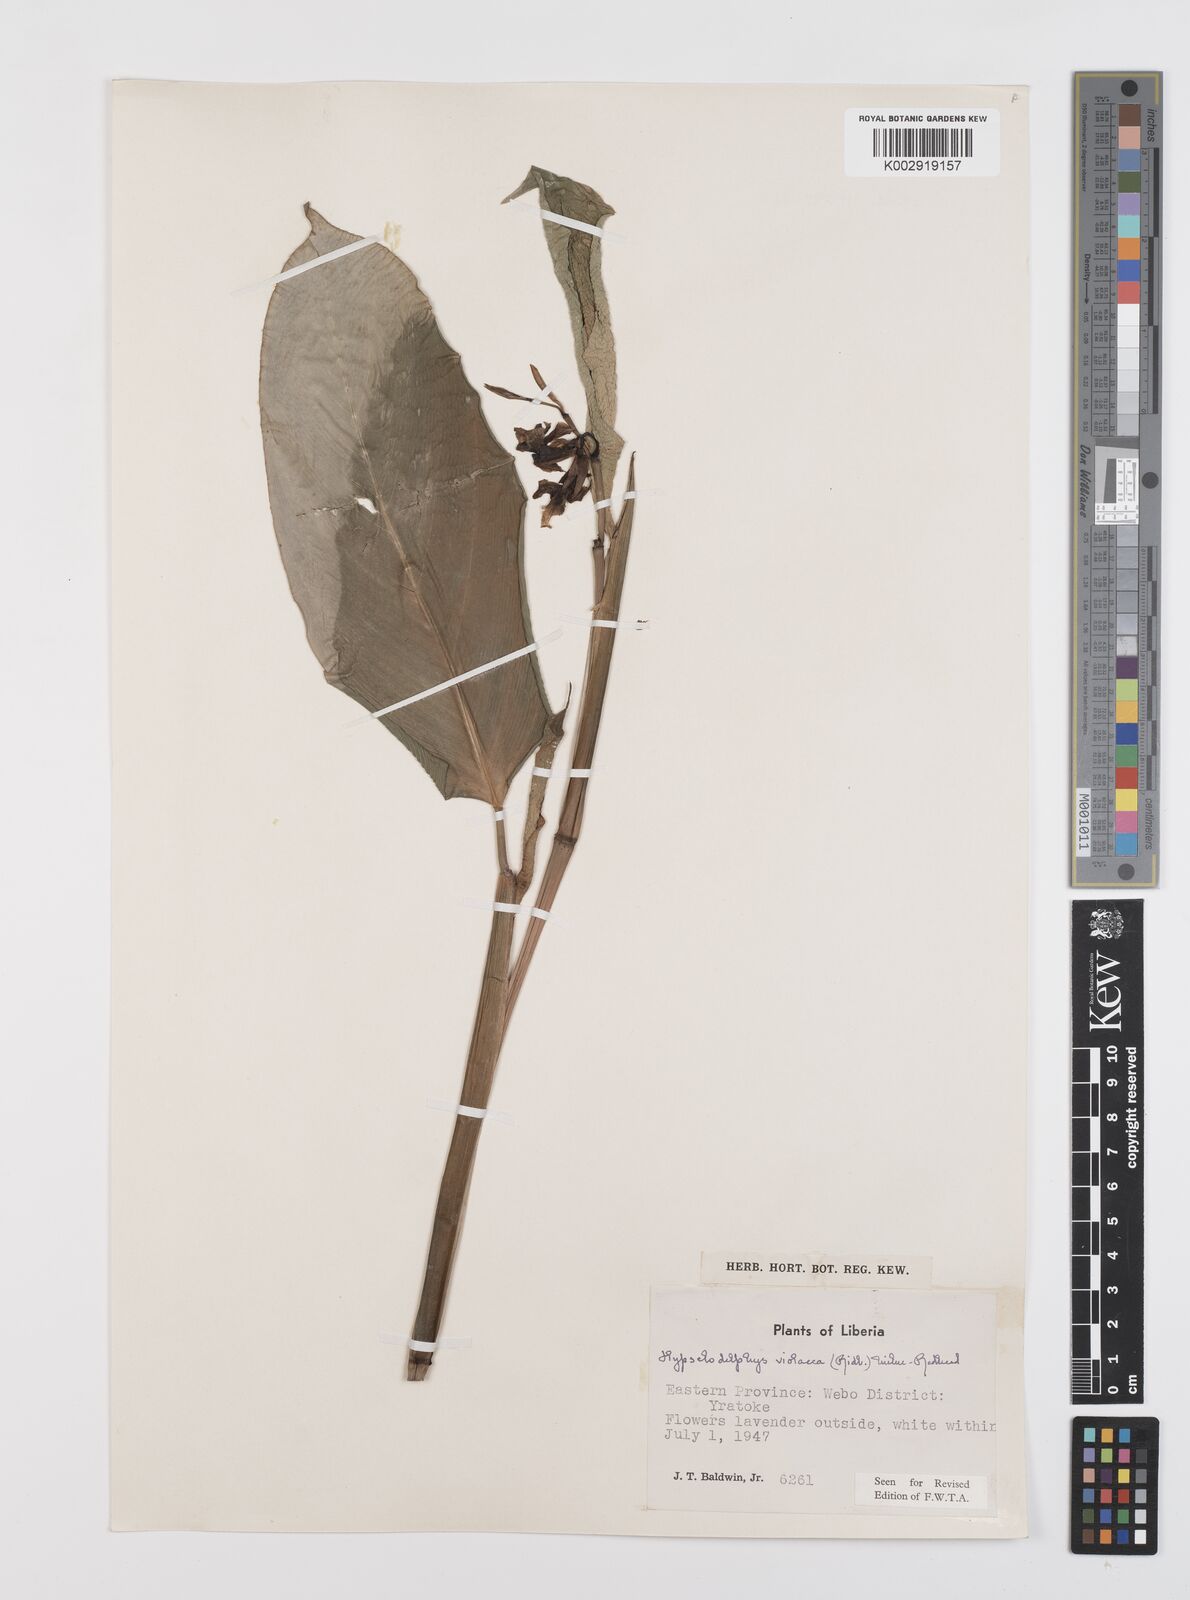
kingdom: Plantae
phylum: Tracheophyta
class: Liliopsida
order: Zingiberales
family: Marantaceae
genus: Hypselodelphys
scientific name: Hypselodelphys violacea
